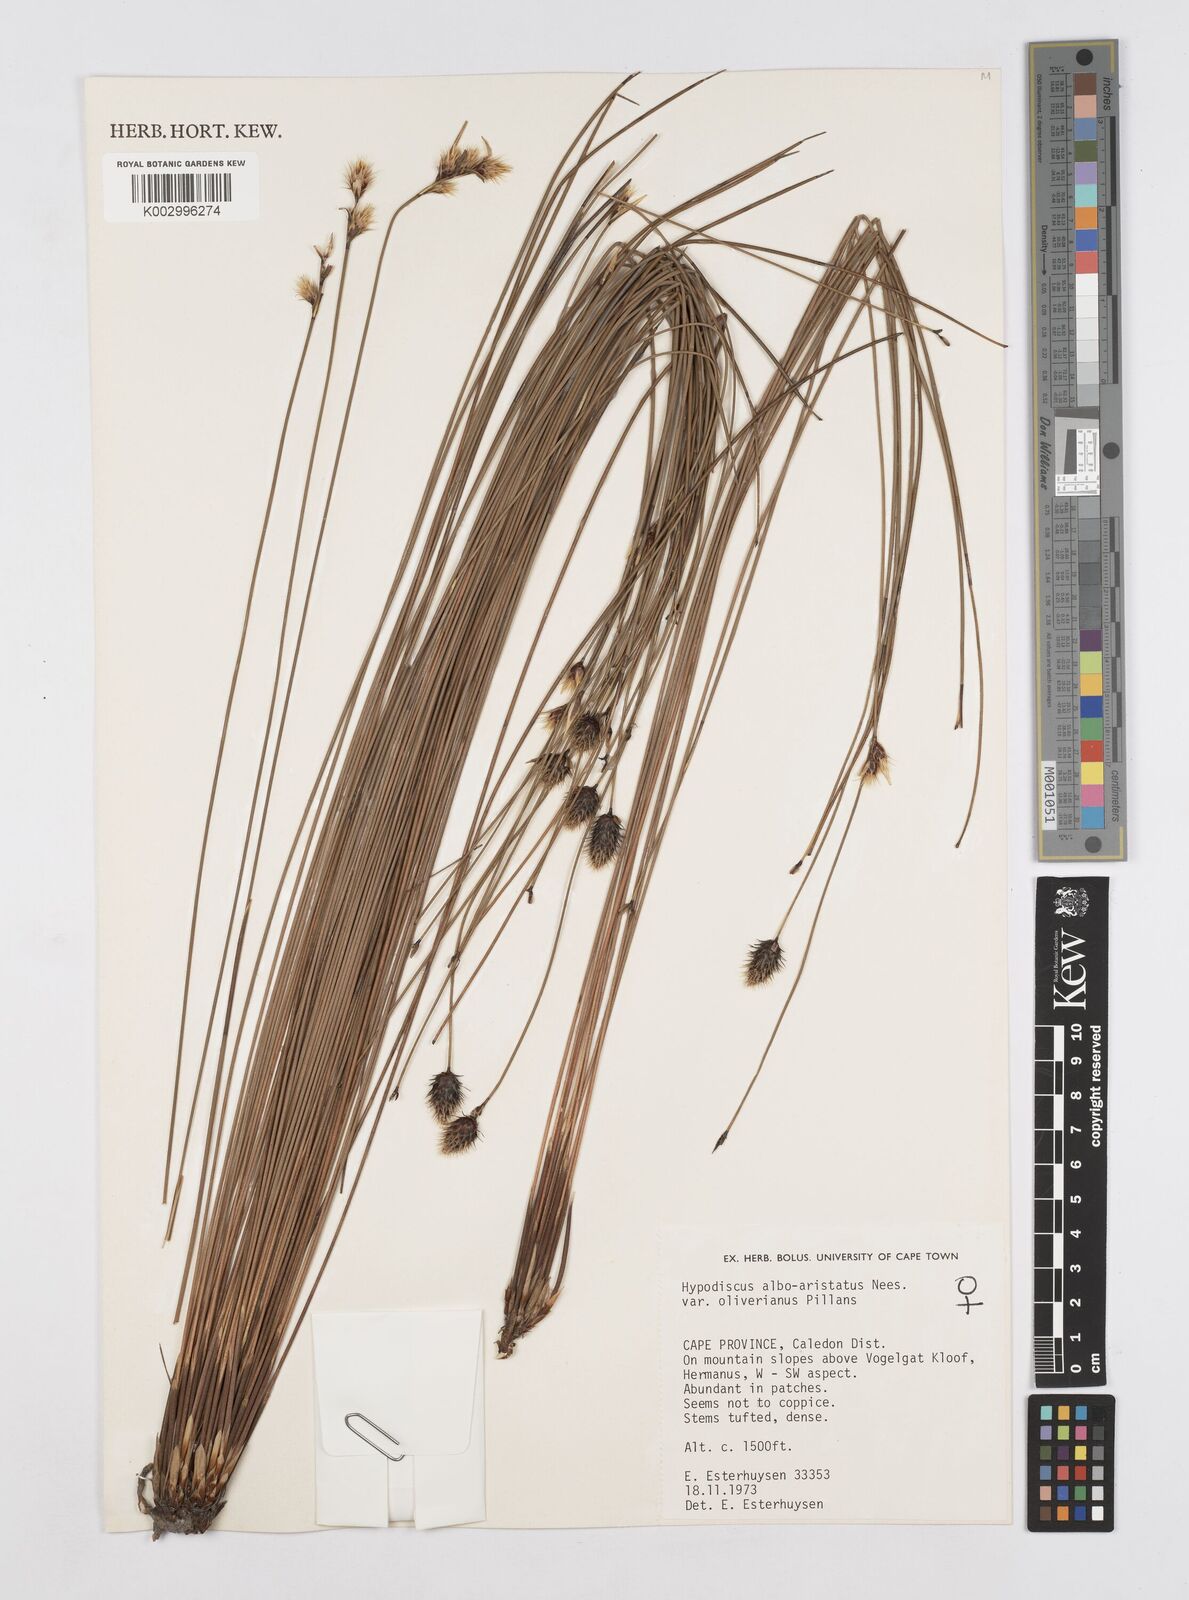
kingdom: Plantae
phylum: Tracheophyta
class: Liliopsida
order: Poales
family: Restionaceae
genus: Hypodiscus
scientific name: Hypodiscus alboaristatus
